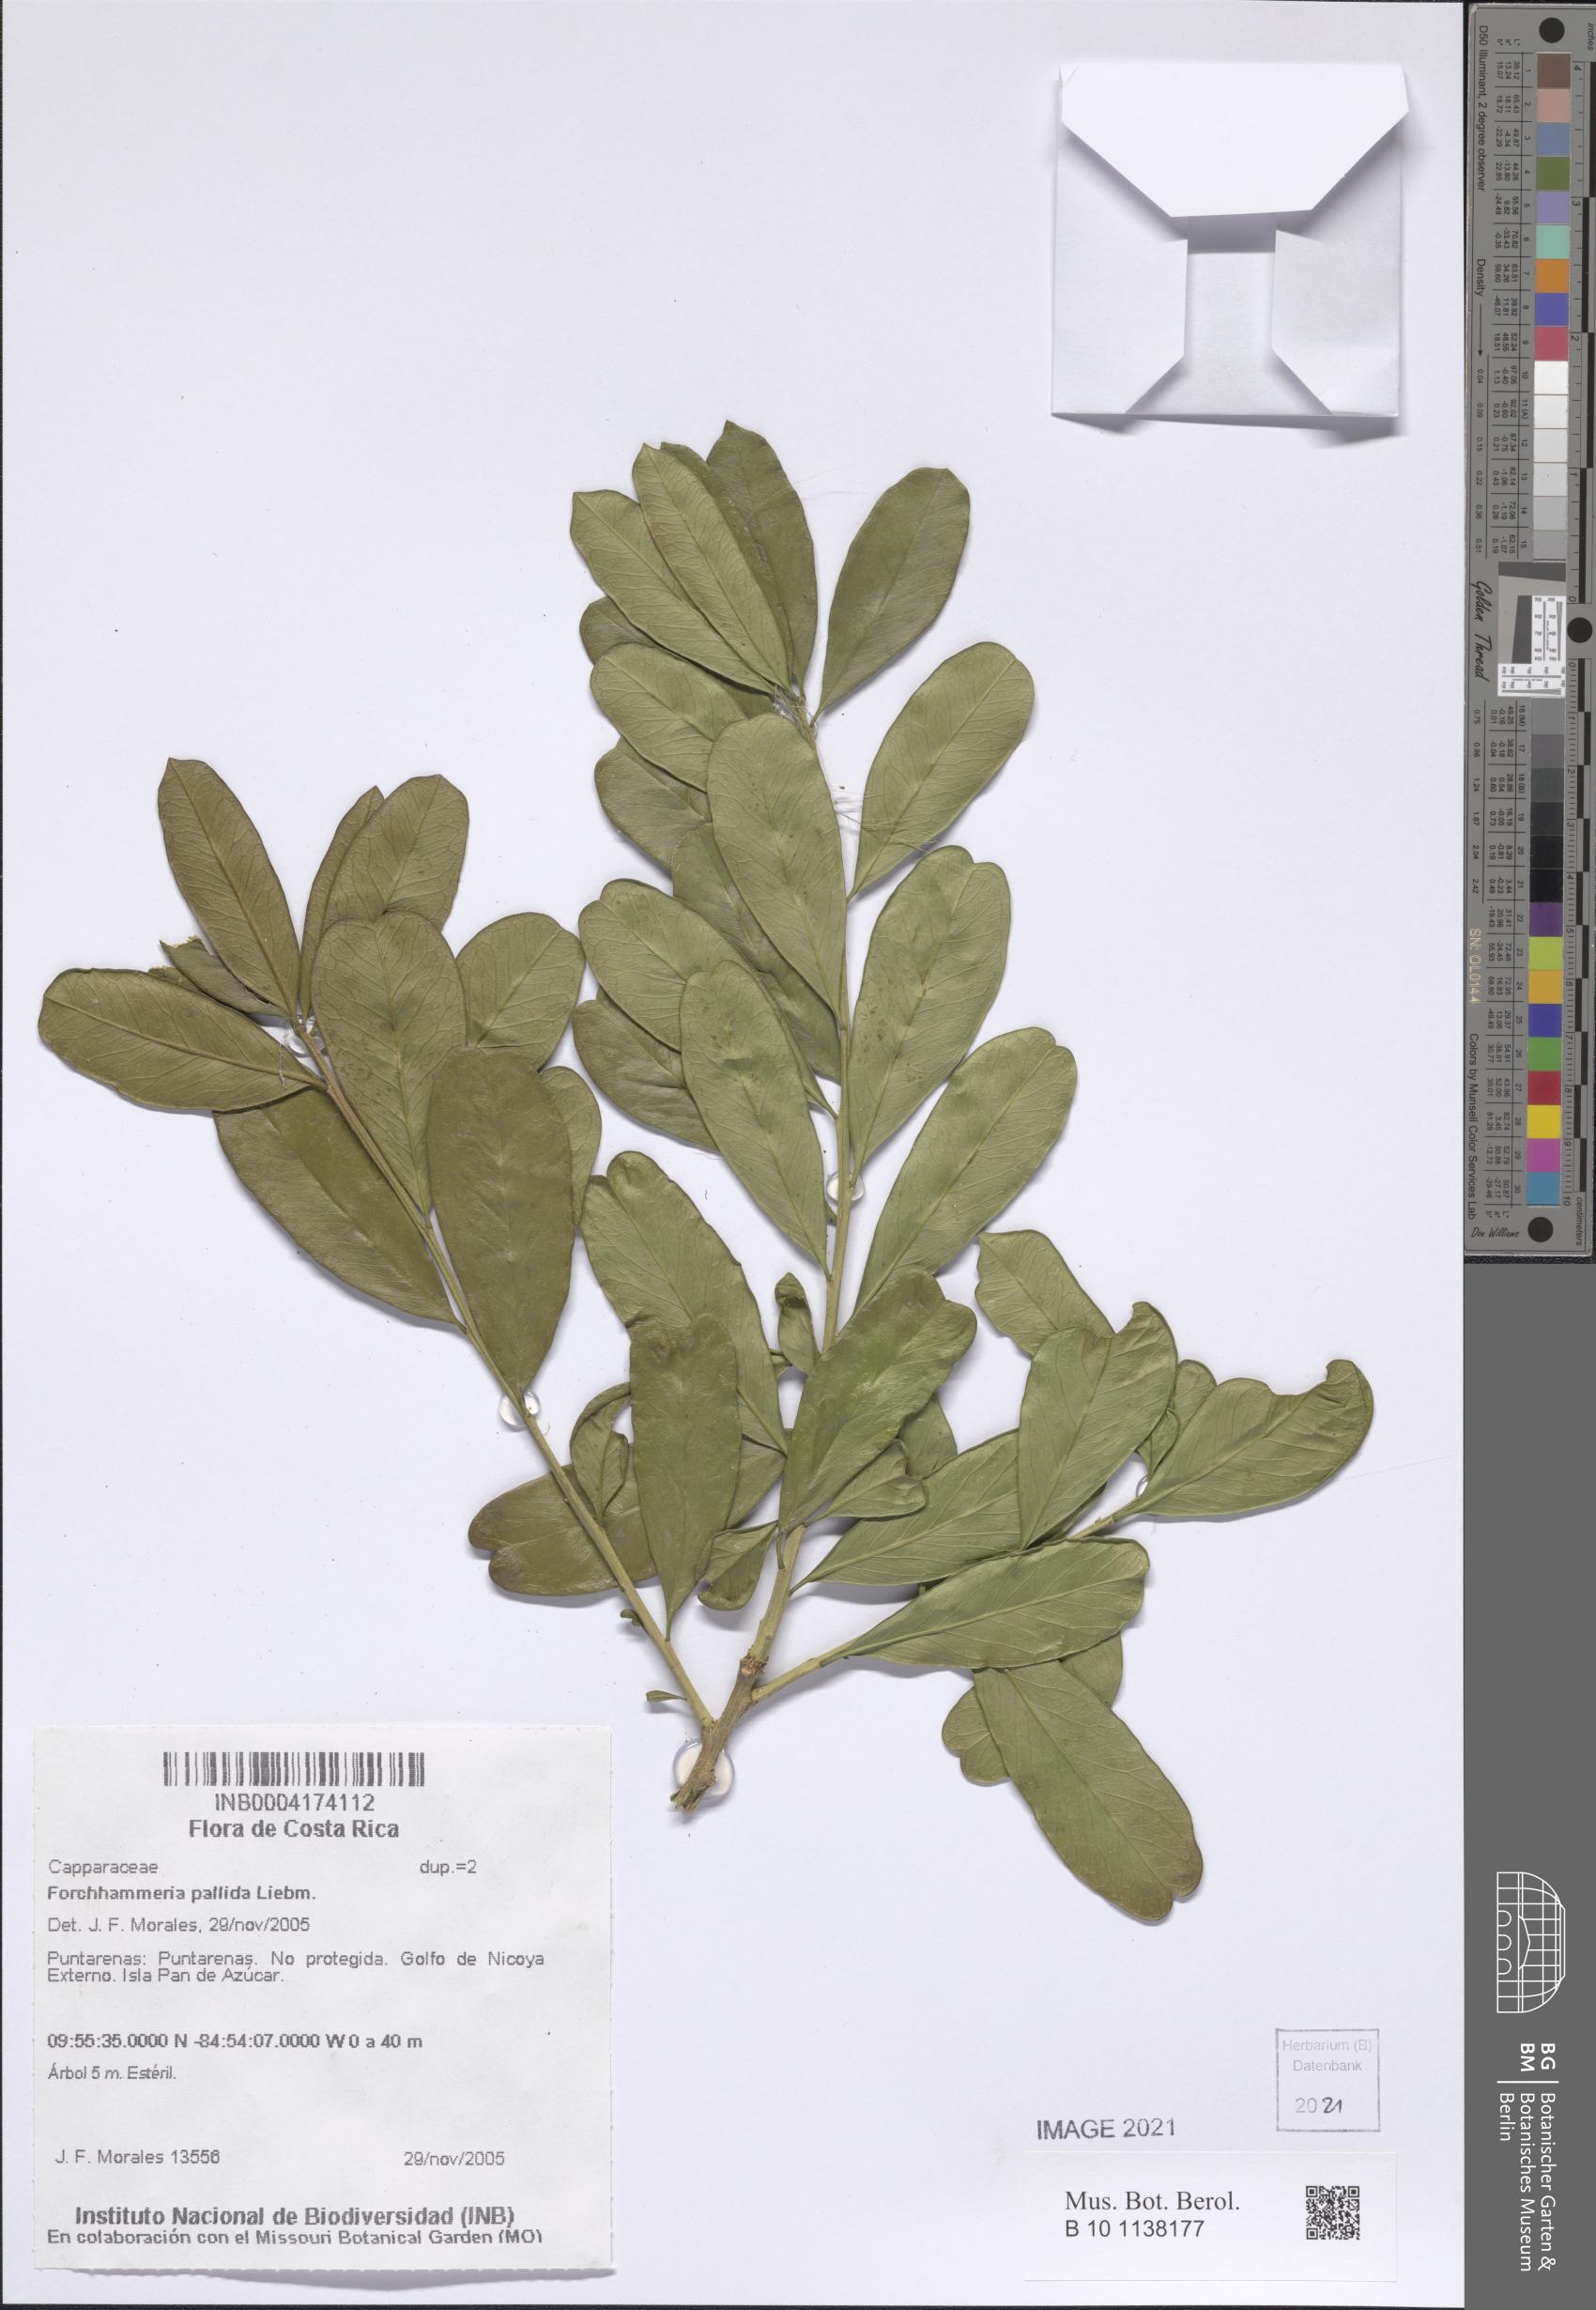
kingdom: Plantae
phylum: Tracheophyta
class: Magnoliopsida
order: Brassicales
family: Stixaceae
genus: Forchhammeria
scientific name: Forchhammeria pallida
